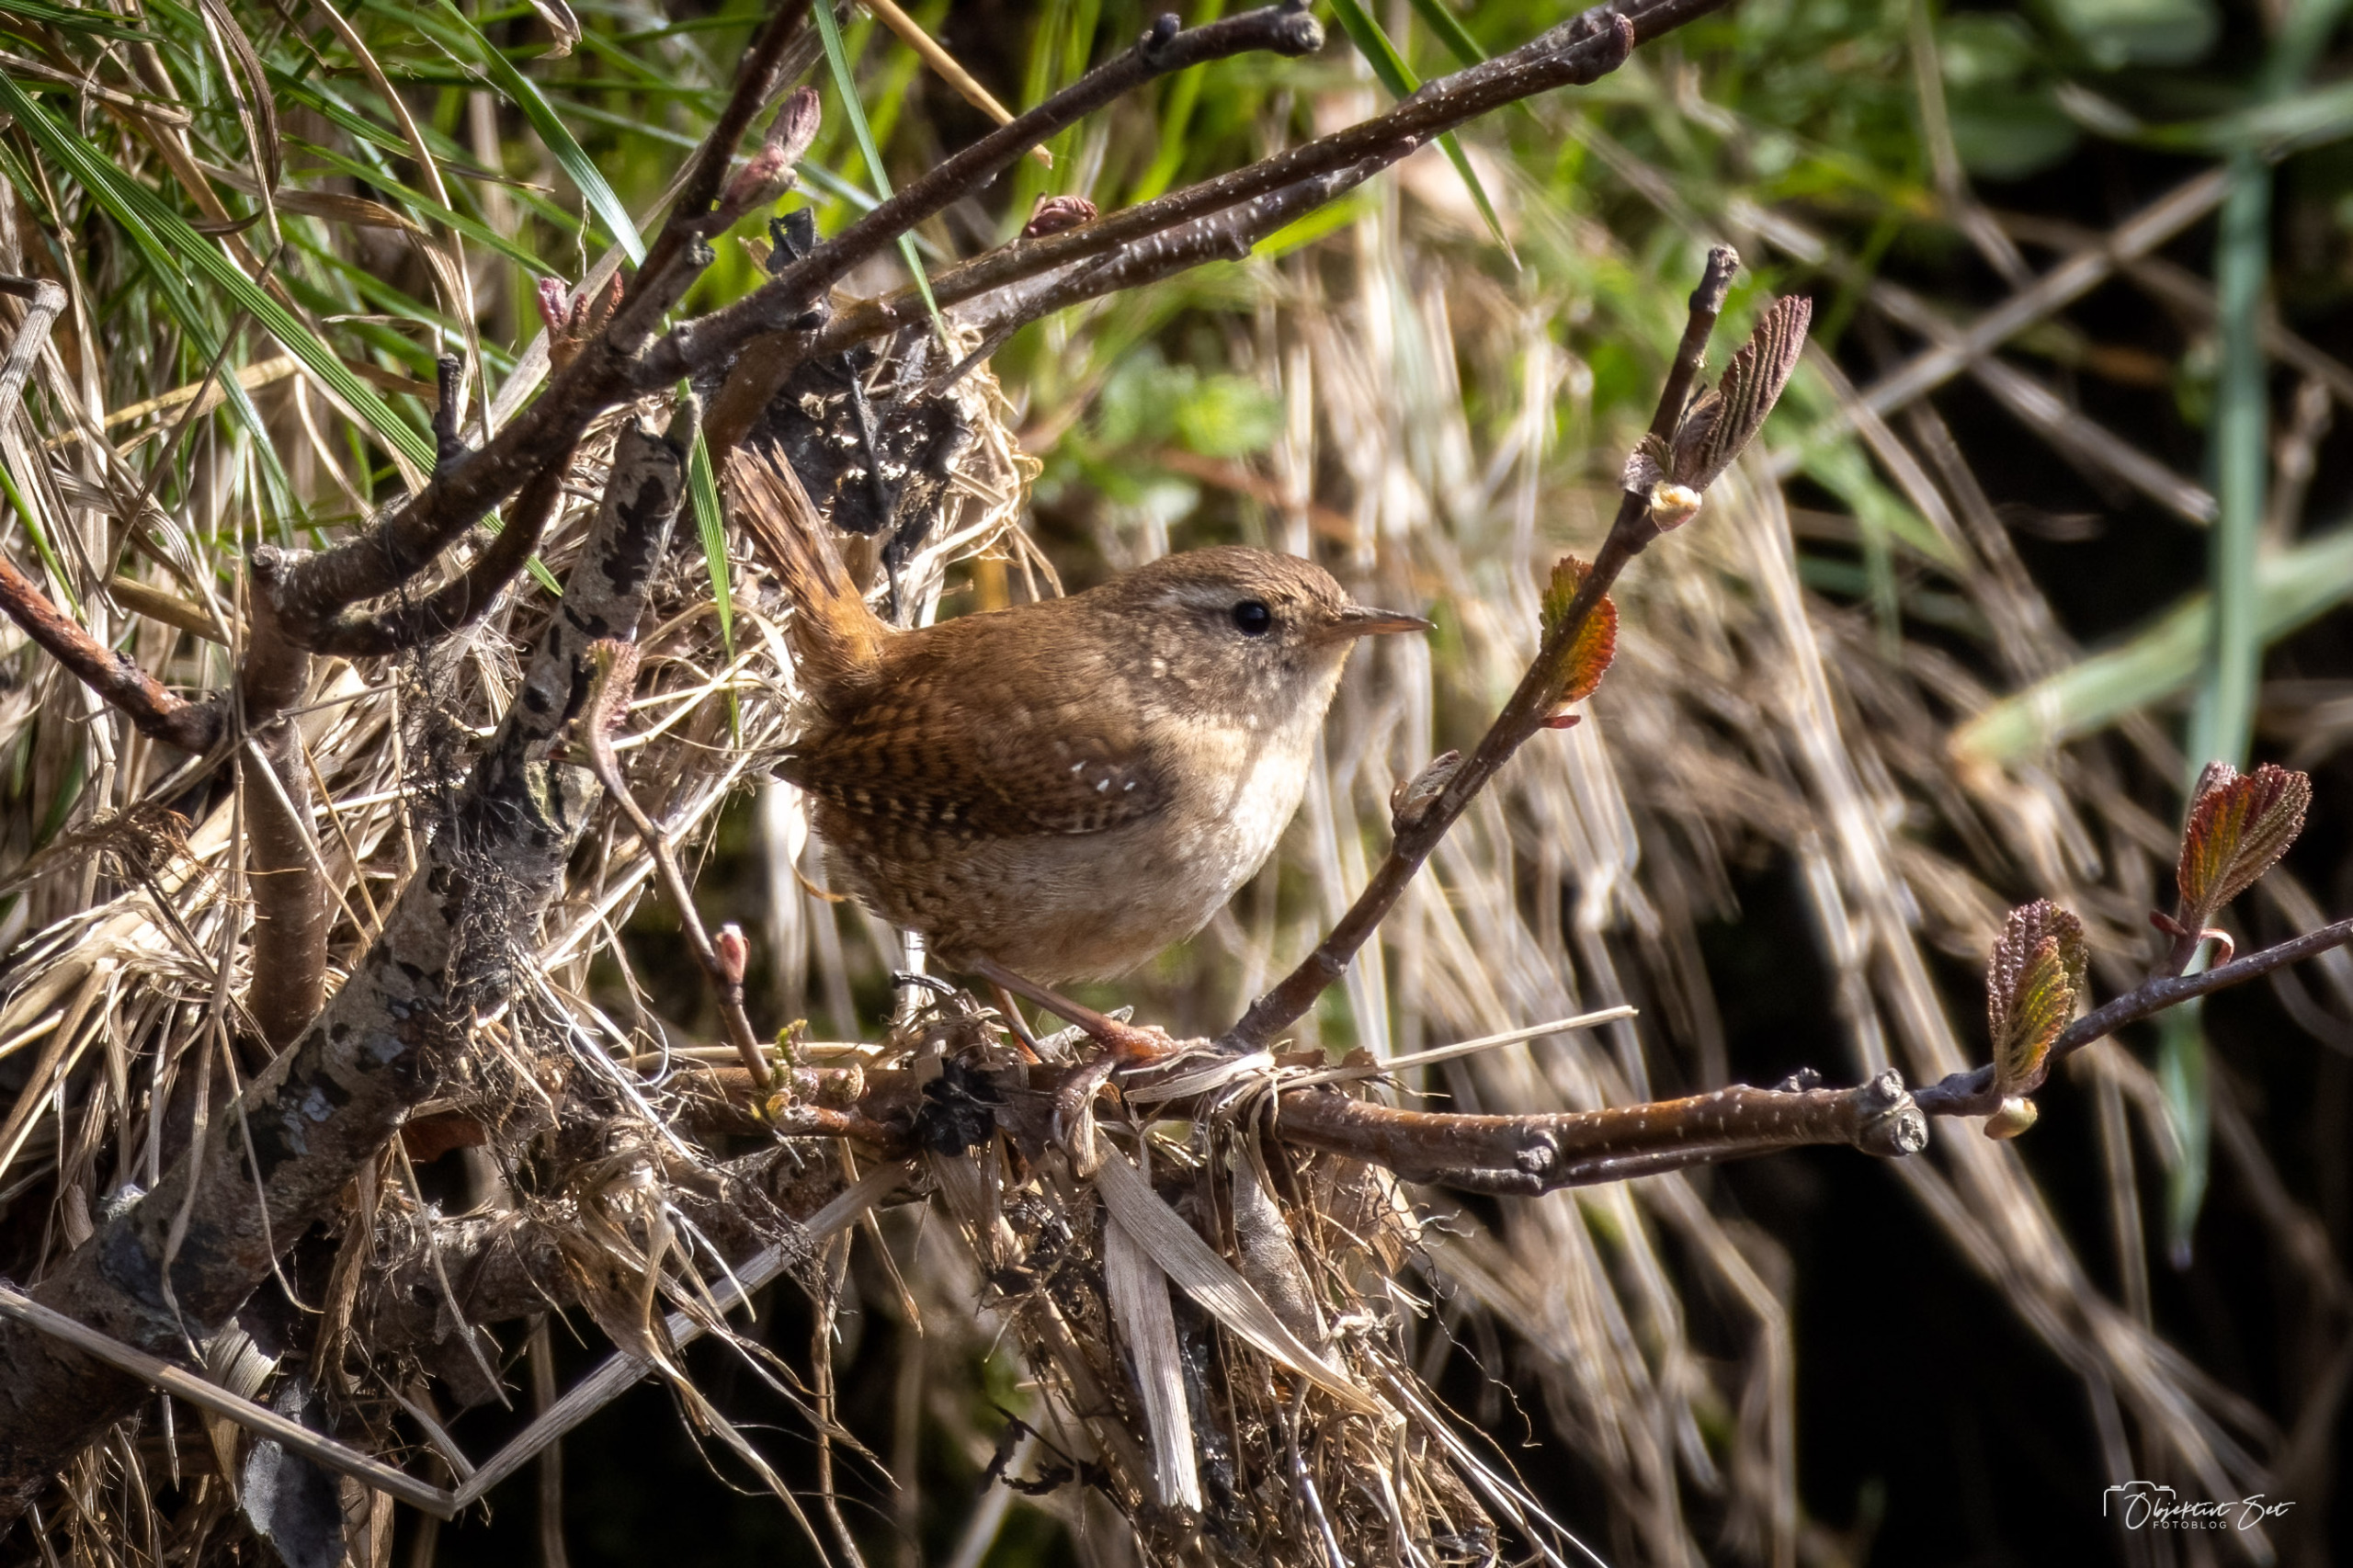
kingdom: Animalia
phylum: Chordata
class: Aves
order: Passeriformes
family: Troglodytidae
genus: Troglodytes
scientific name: Troglodytes troglodytes
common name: Gærdesmutte
